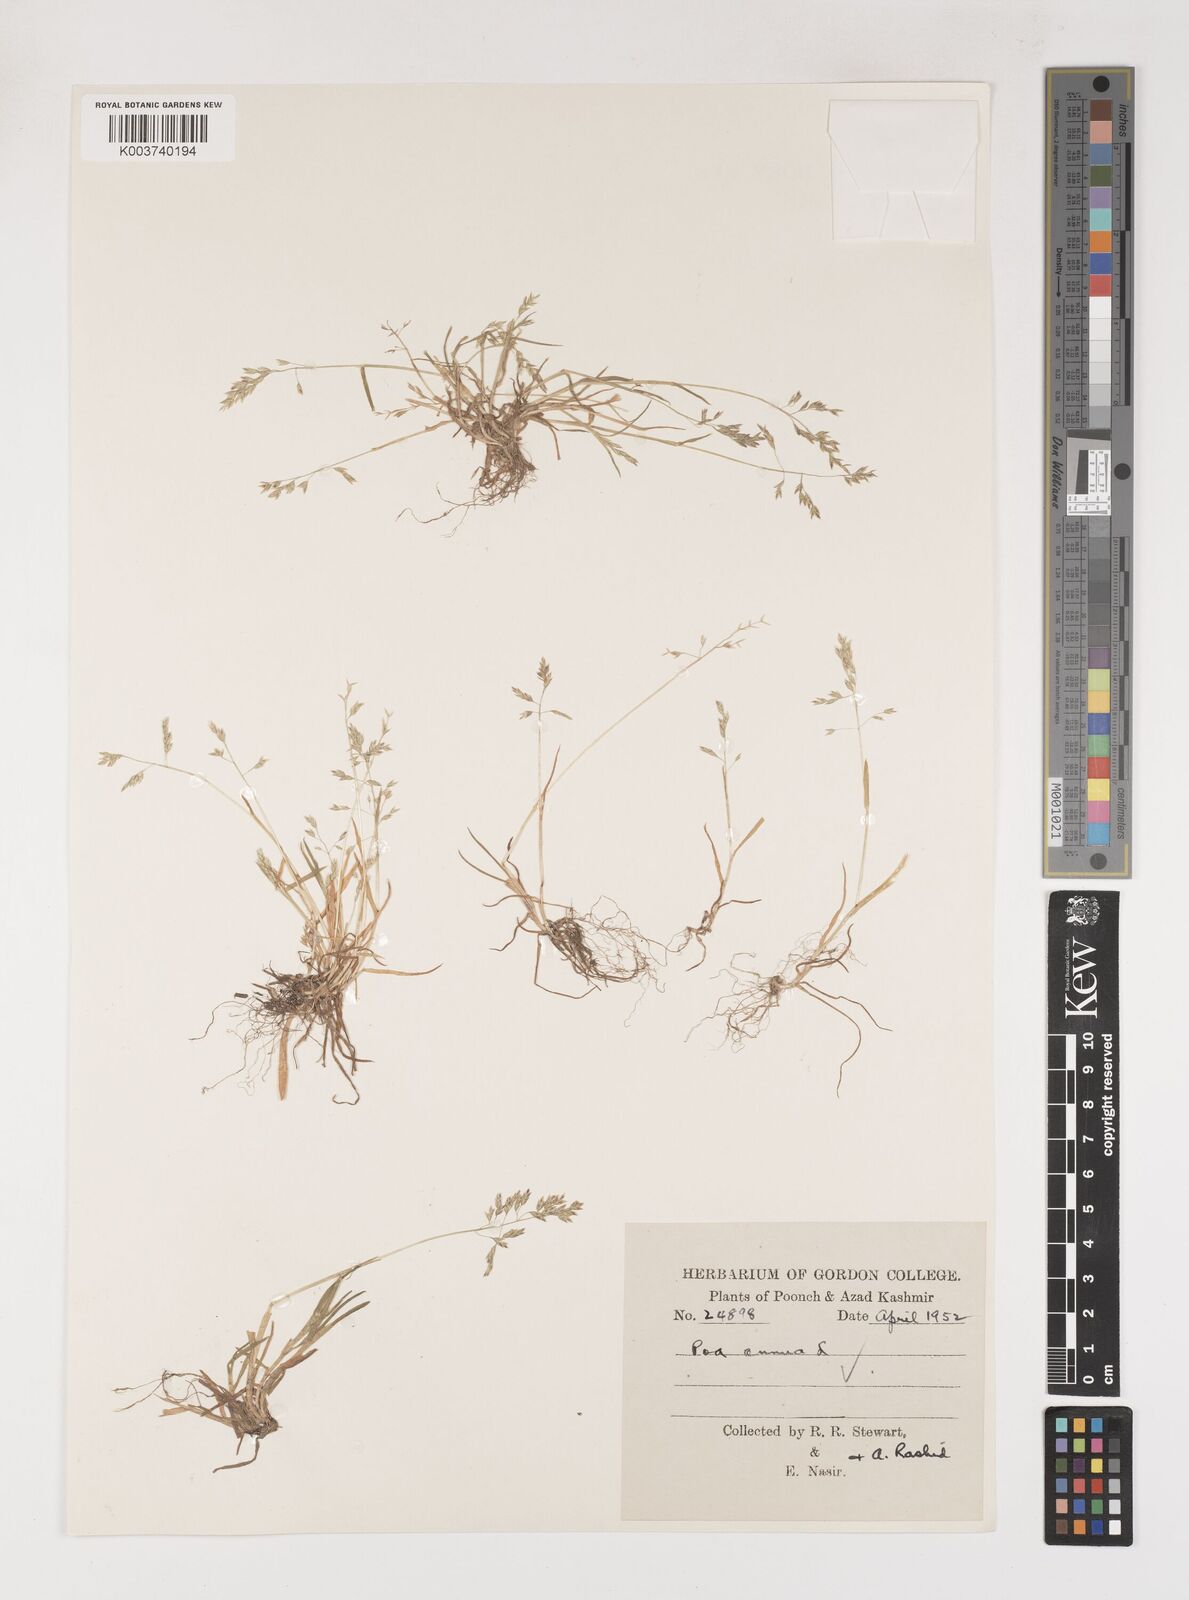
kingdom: Plantae
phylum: Tracheophyta
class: Liliopsida
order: Poales
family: Poaceae
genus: Poa
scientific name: Poa annua
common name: Annual bluegrass
